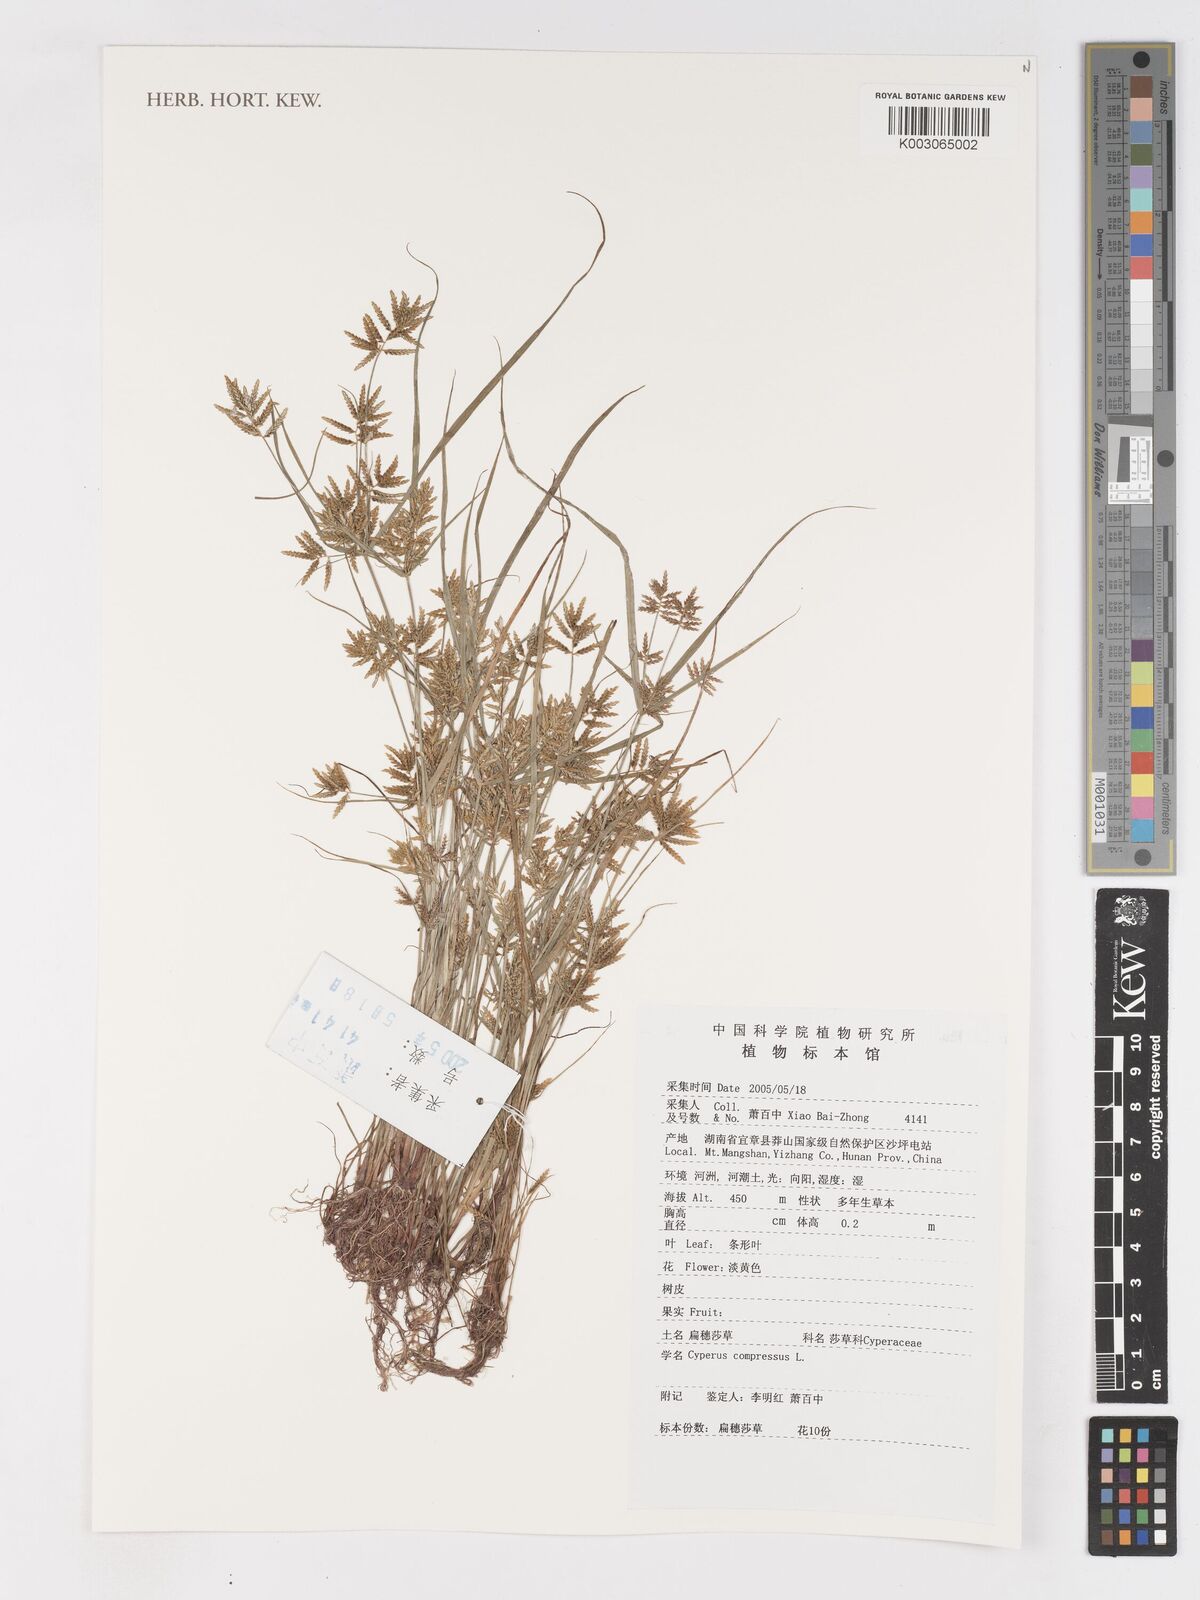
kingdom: Plantae
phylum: Tracheophyta
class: Liliopsida
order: Poales
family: Cyperaceae
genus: Cyperus
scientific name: Cyperus compressus
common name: Poorland flatsedge
